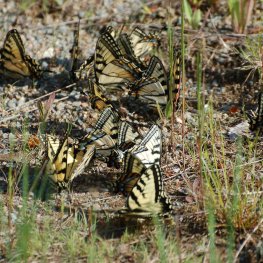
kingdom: Animalia
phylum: Arthropoda
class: Insecta
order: Lepidoptera
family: Papilionidae
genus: Pterourus
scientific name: Pterourus canadensis
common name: Canadian Tiger Swallowtail
